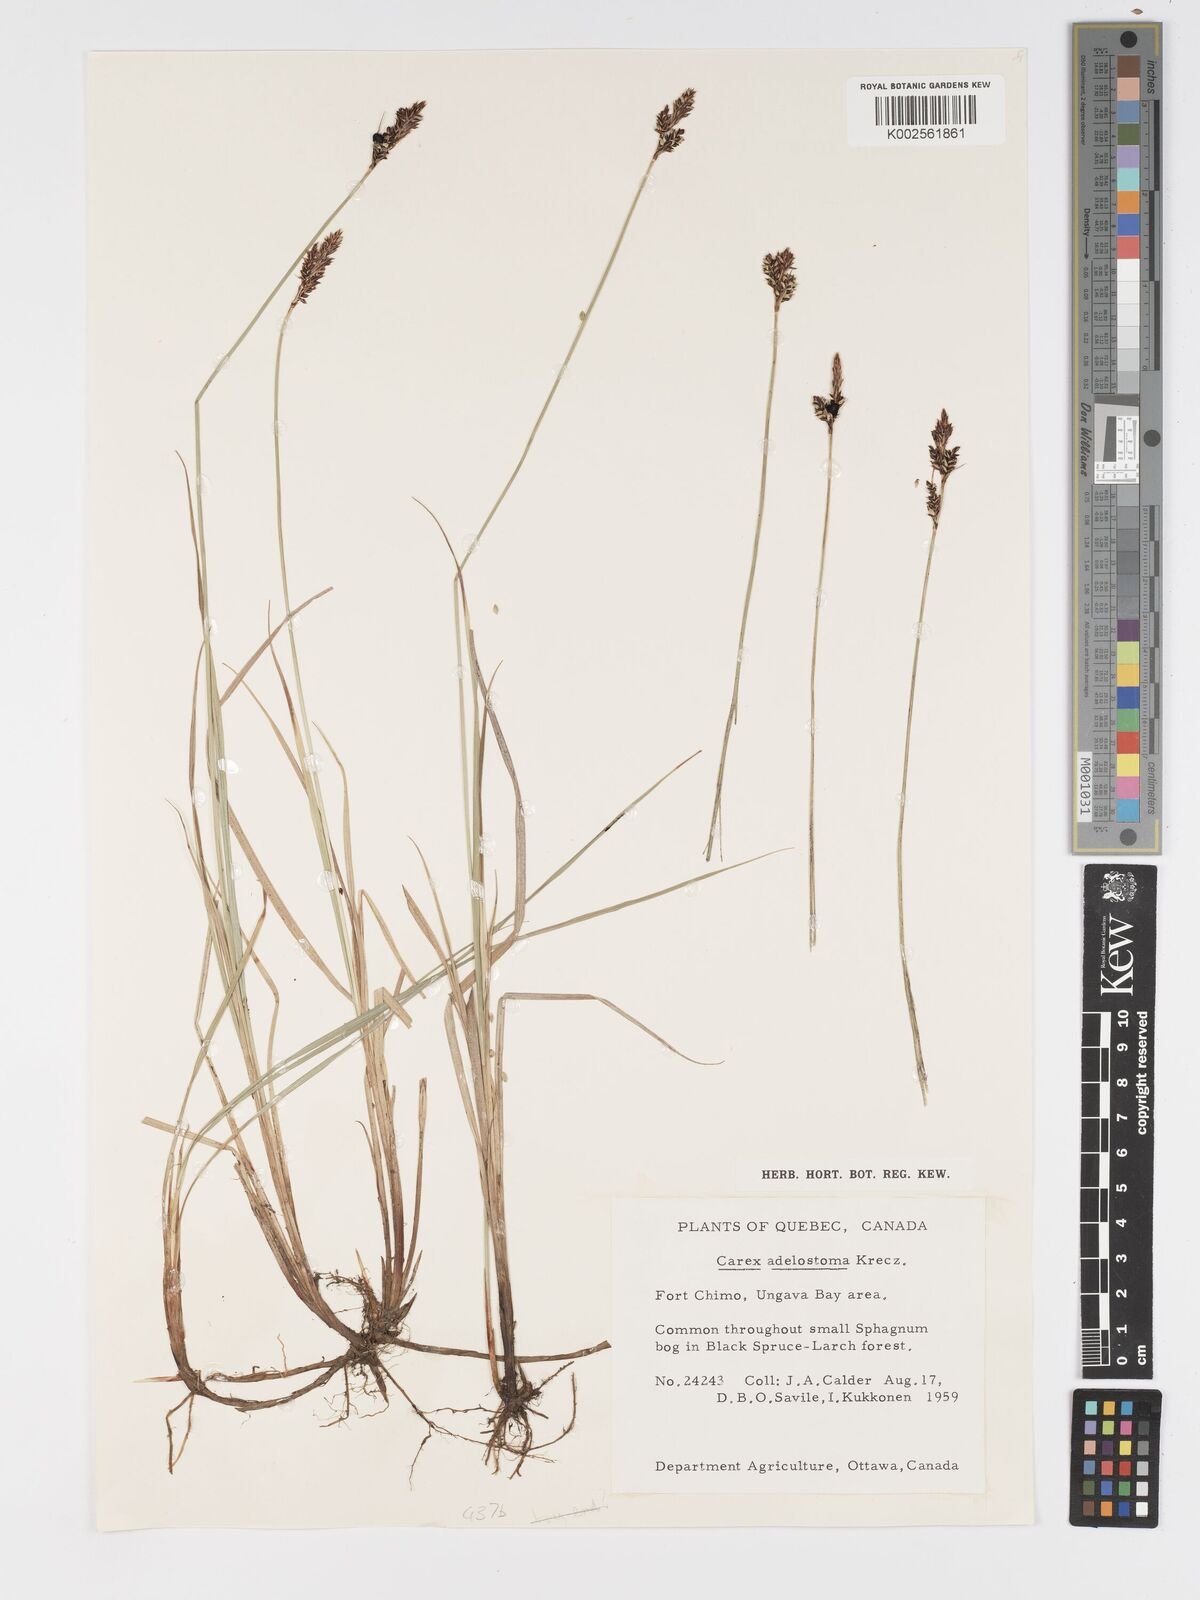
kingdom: Plantae
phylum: Tracheophyta
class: Liliopsida
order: Poales
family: Cyperaceae
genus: Carex
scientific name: Carex adelostoma
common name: Circumpolar sedge
